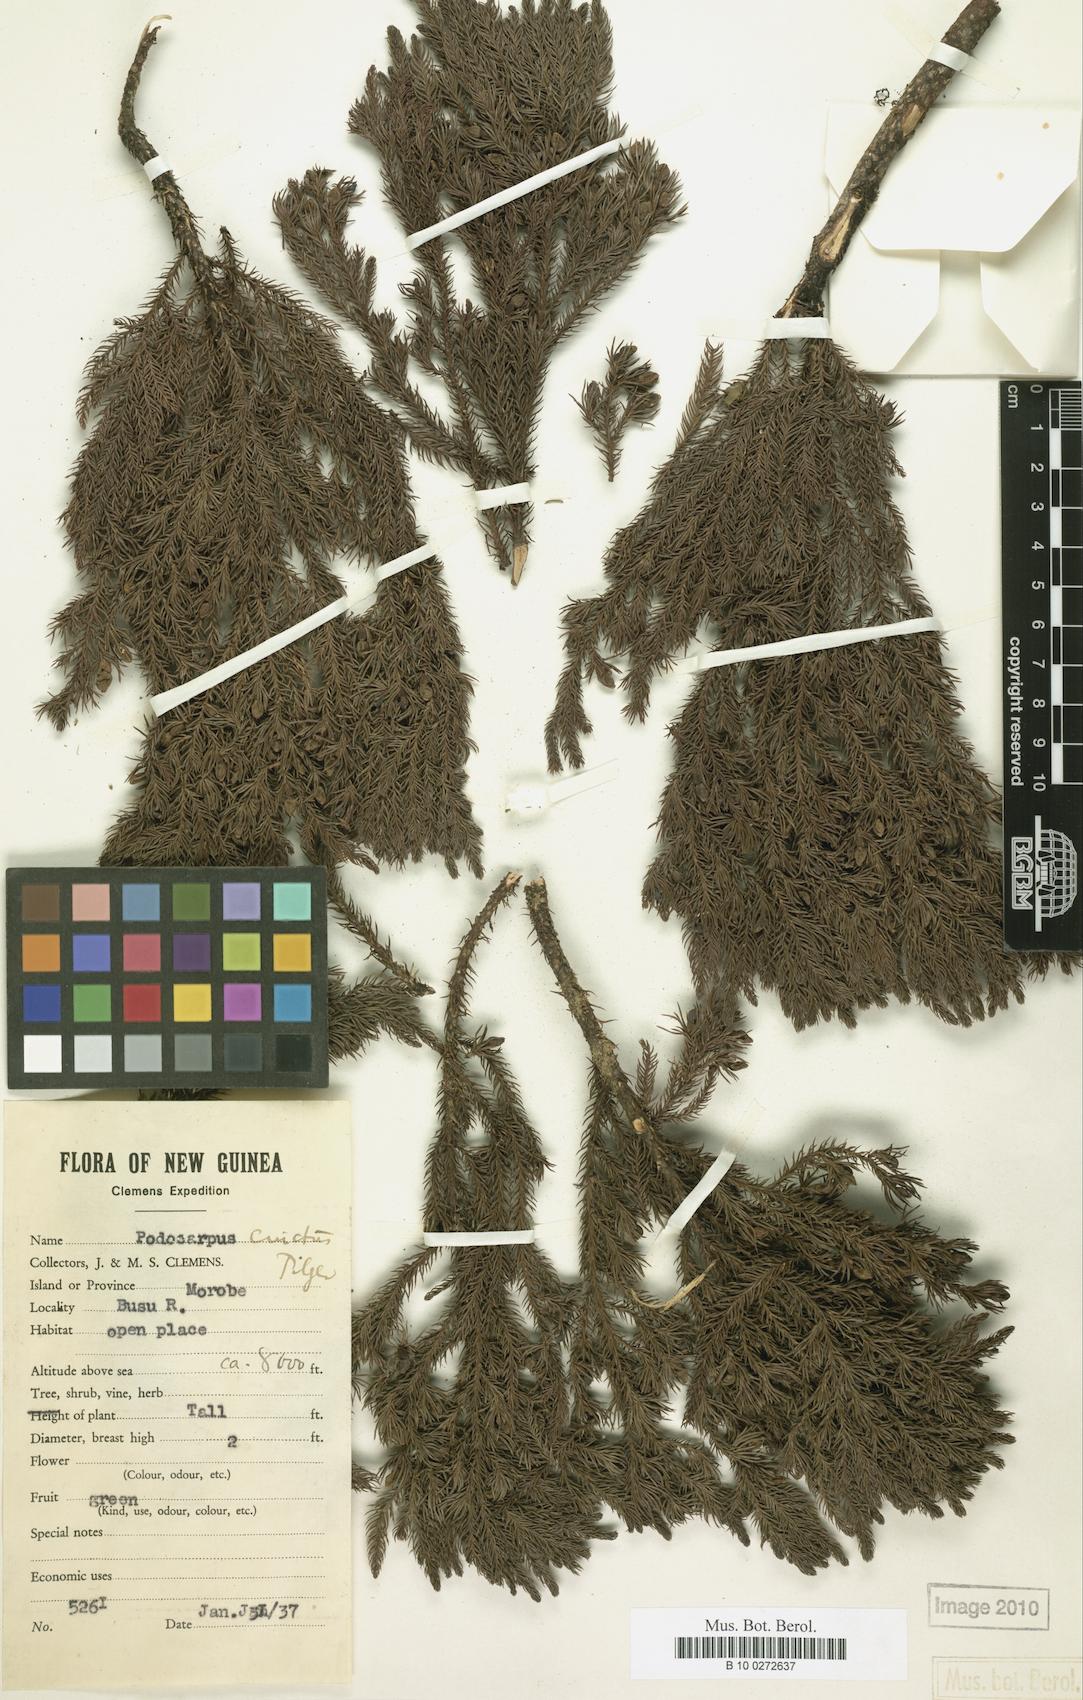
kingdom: Plantae
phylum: Tracheophyta
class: Pinopsida
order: Pinales
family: Podocarpaceae
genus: Dacrydium
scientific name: Dacrydium
